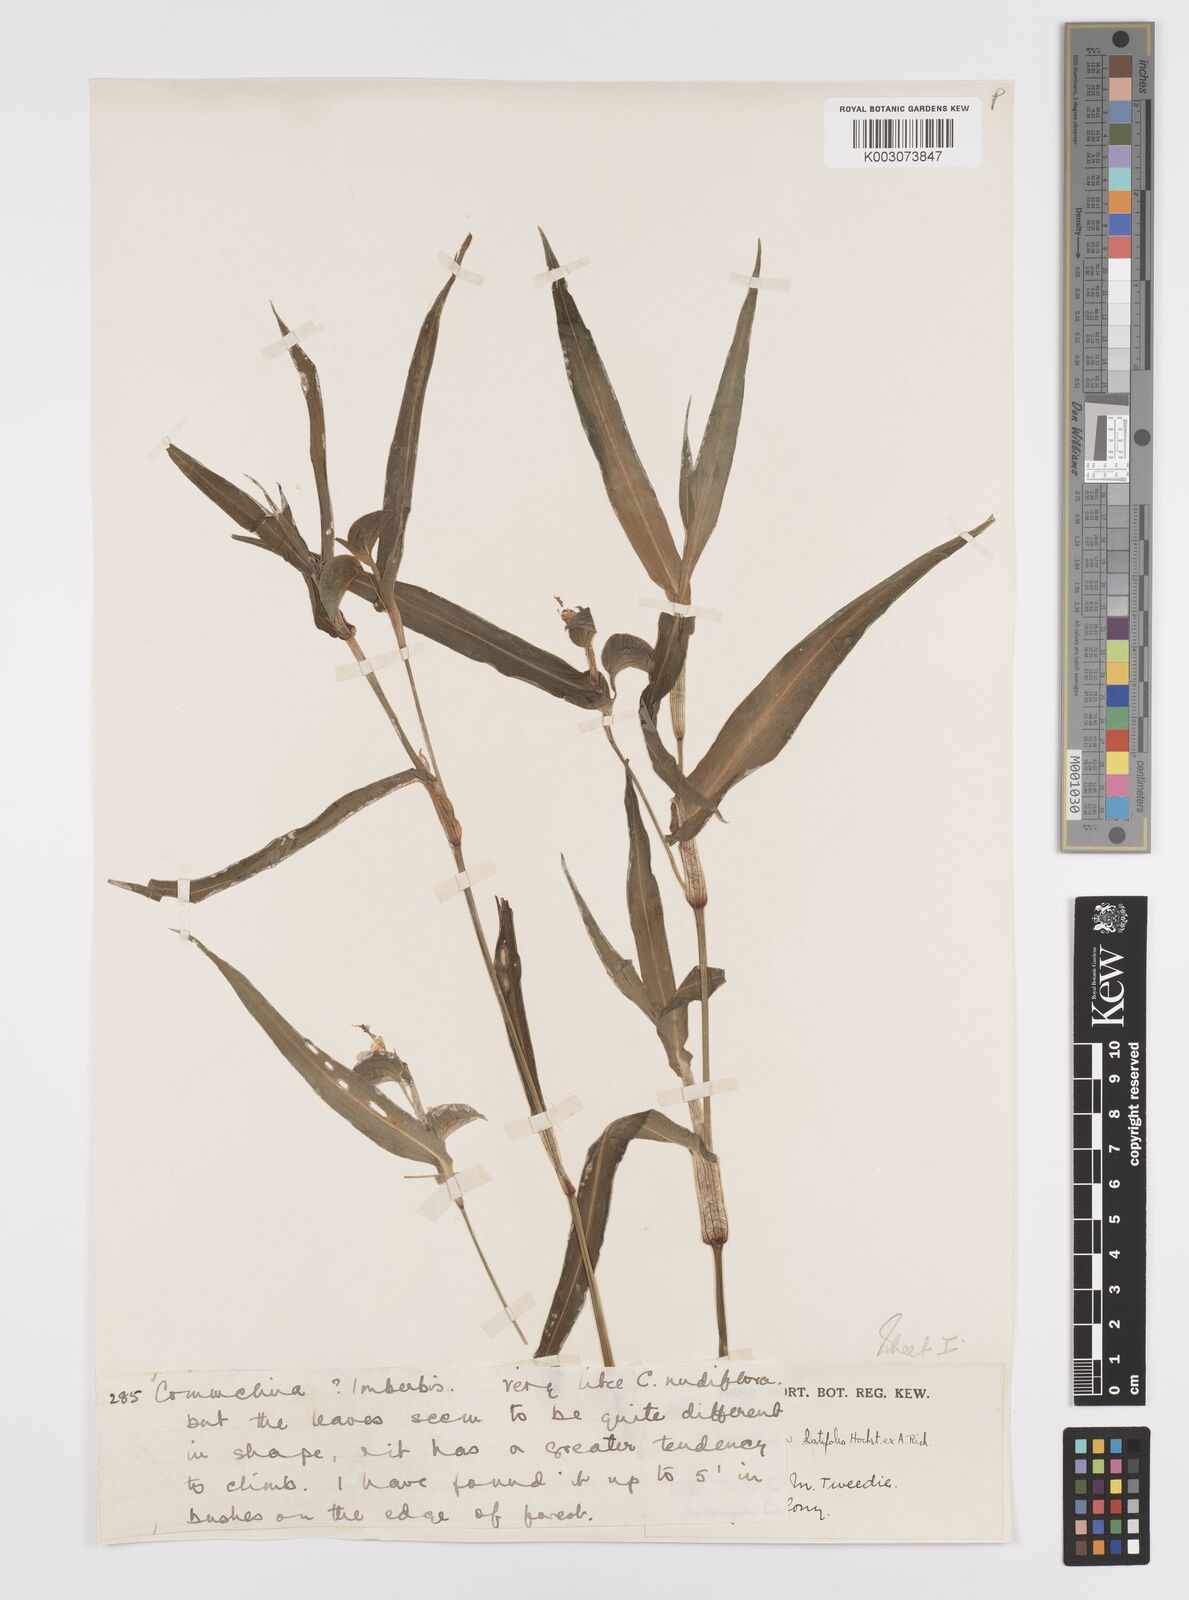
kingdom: Plantae
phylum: Tracheophyta
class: Liliopsida
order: Commelinales
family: Commelinaceae
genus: Commelina
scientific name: Commelina latifolia
